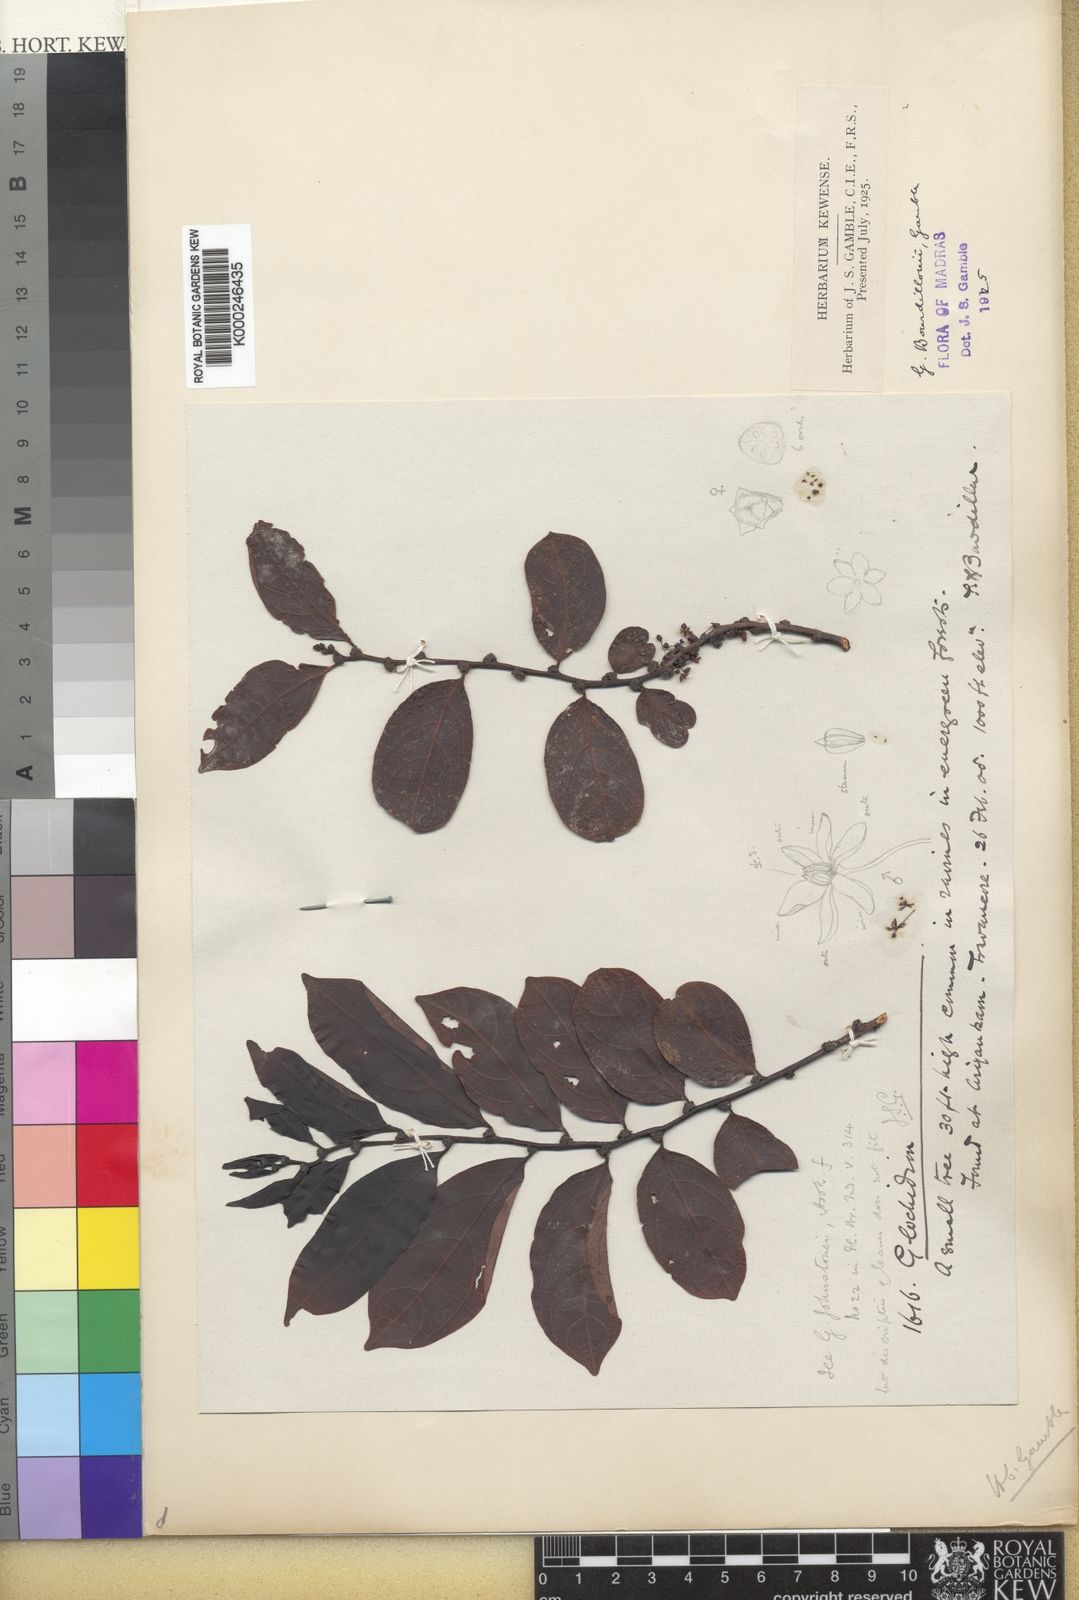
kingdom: Plantae
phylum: Tracheophyta
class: Magnoliopsida
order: Malpighiales
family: Phyllanthaceae
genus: Glochidion
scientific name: Glochidion bourdillonii
